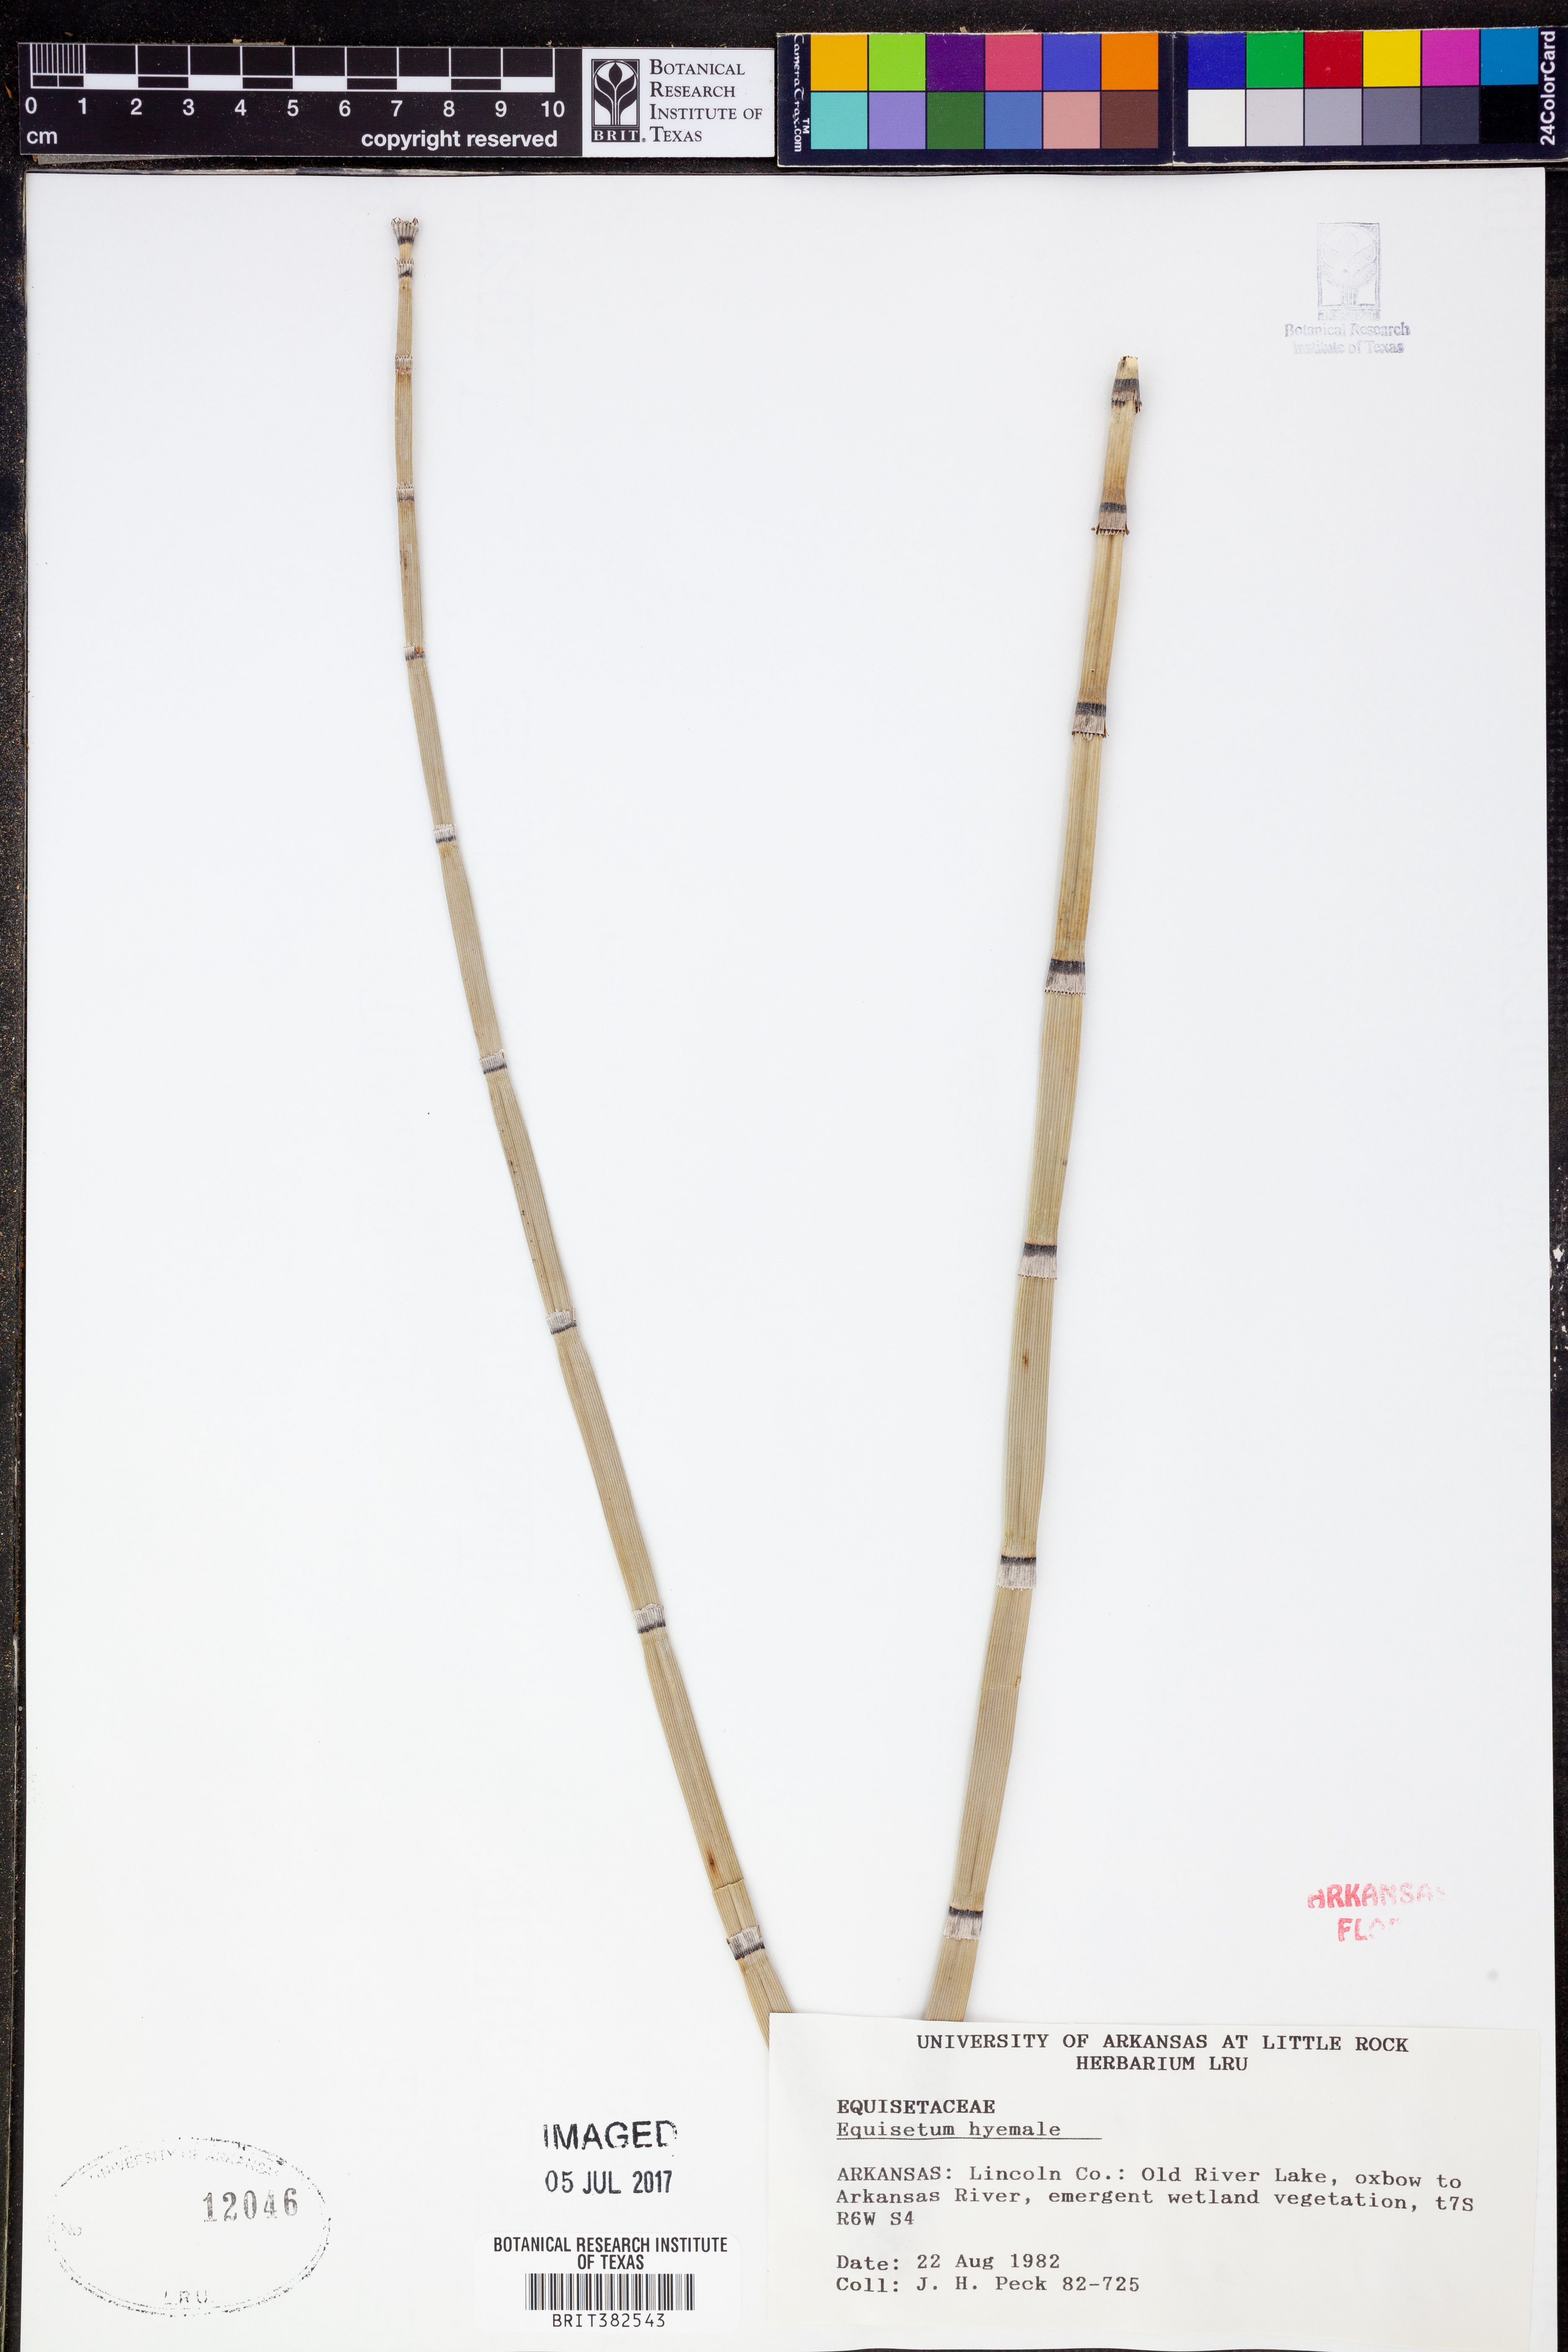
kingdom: Plantae
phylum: Tracheophyta
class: Polypodiopsida
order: Equisetales
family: Equisetaceae
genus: Equisetum
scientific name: Equisetum hyemale
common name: Rough horsetail
